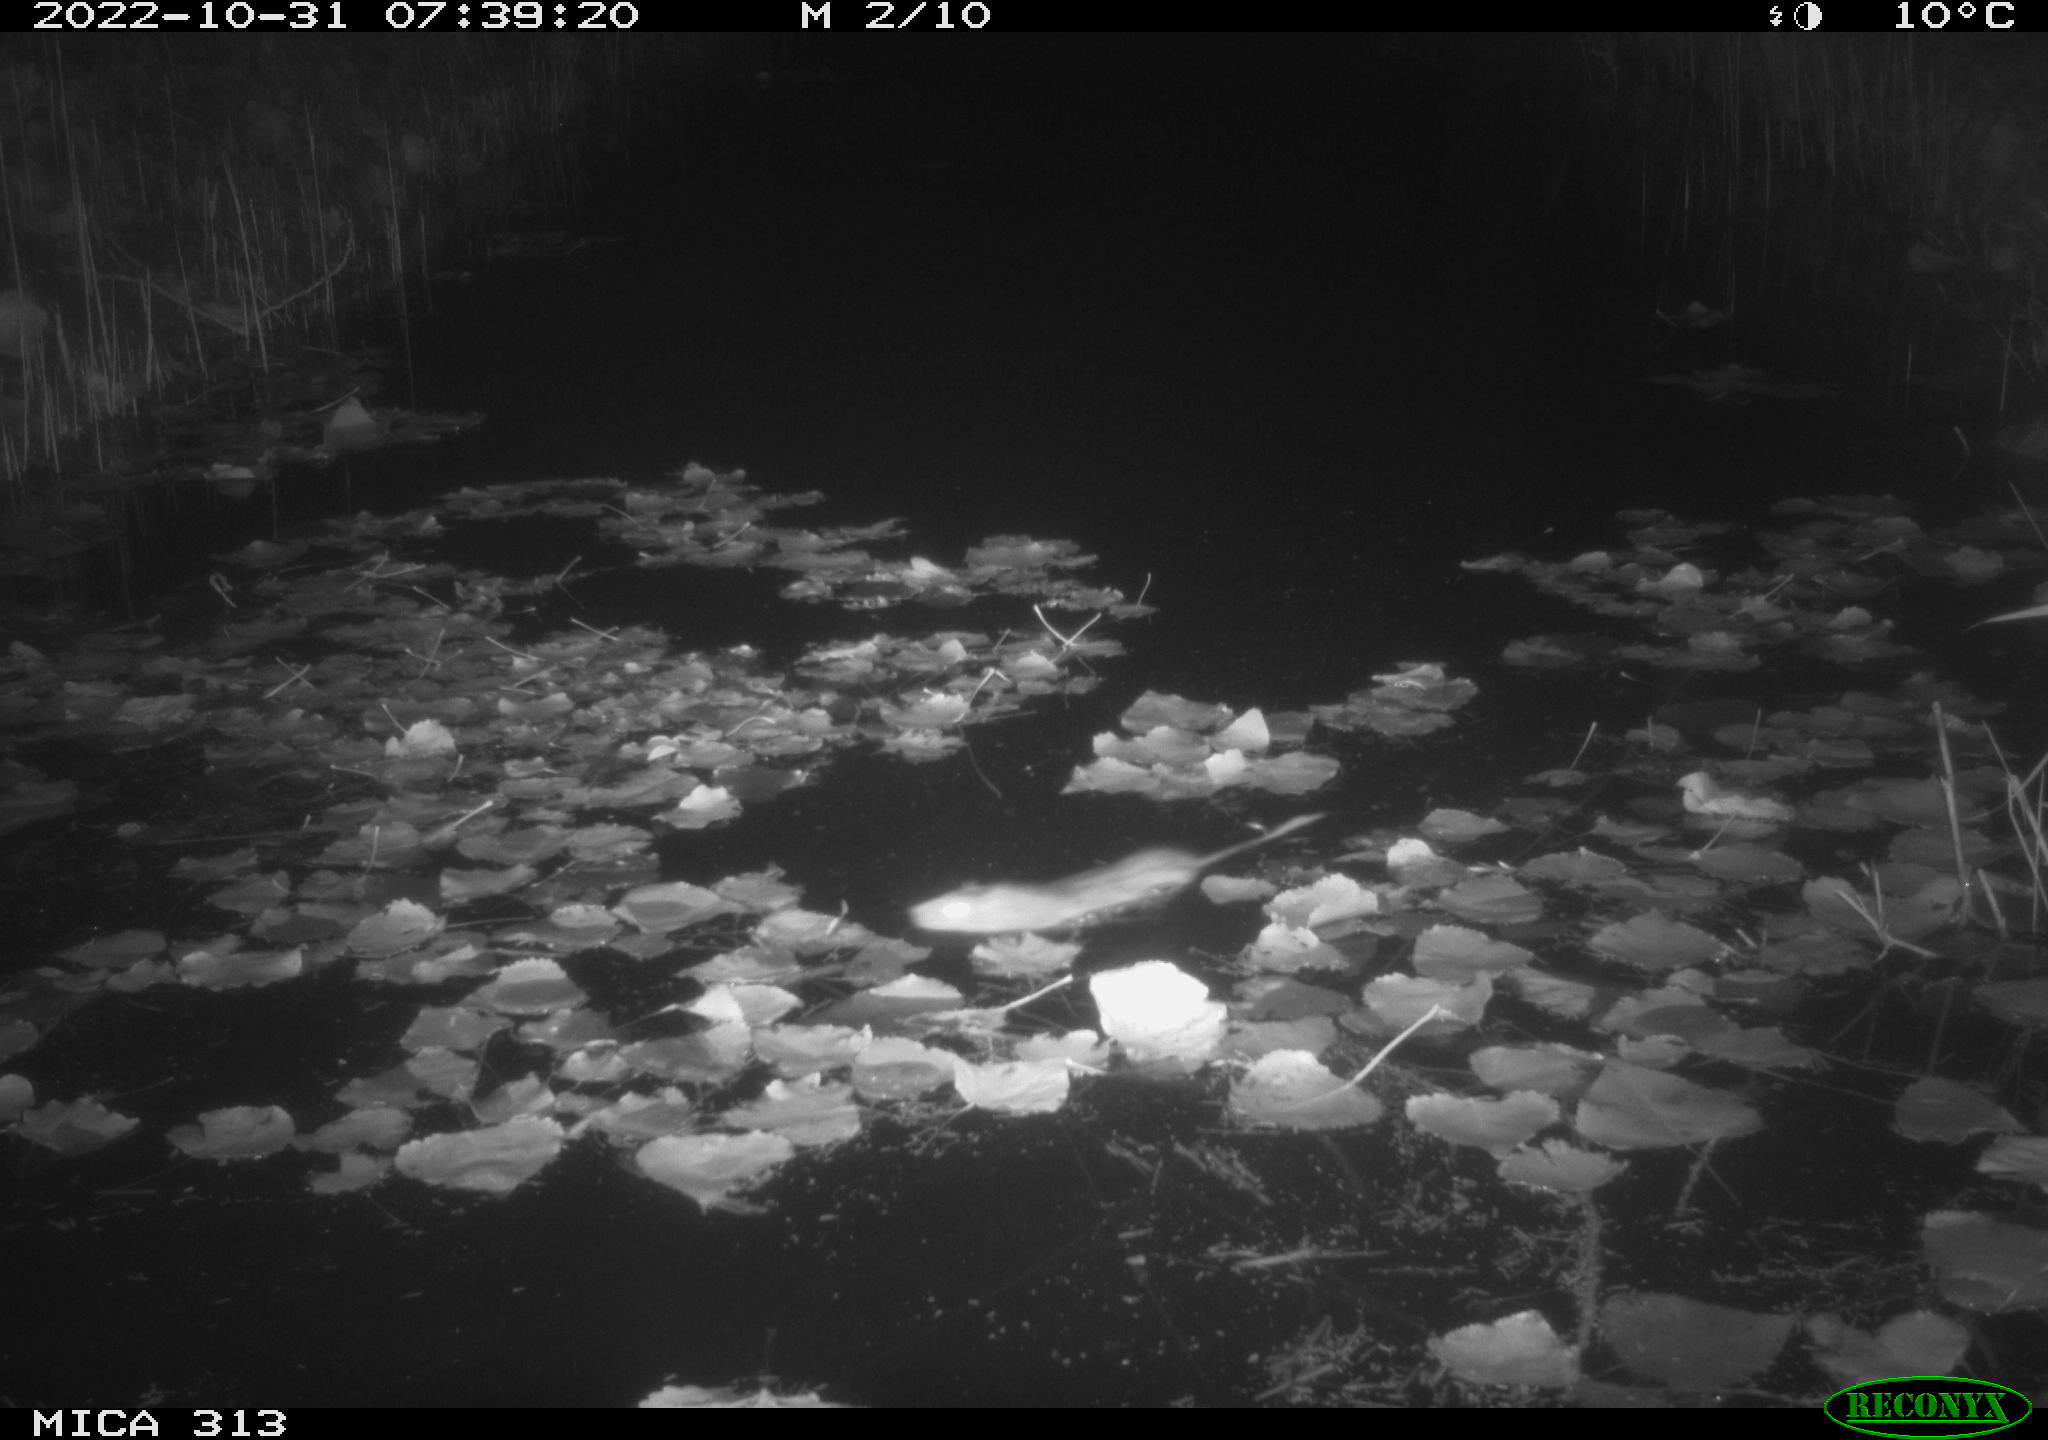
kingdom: Animalia
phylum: Chordata
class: Mammalia
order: Rodentia
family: Muridae
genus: Rattus
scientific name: Rattus norvegicus
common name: Brown rat
